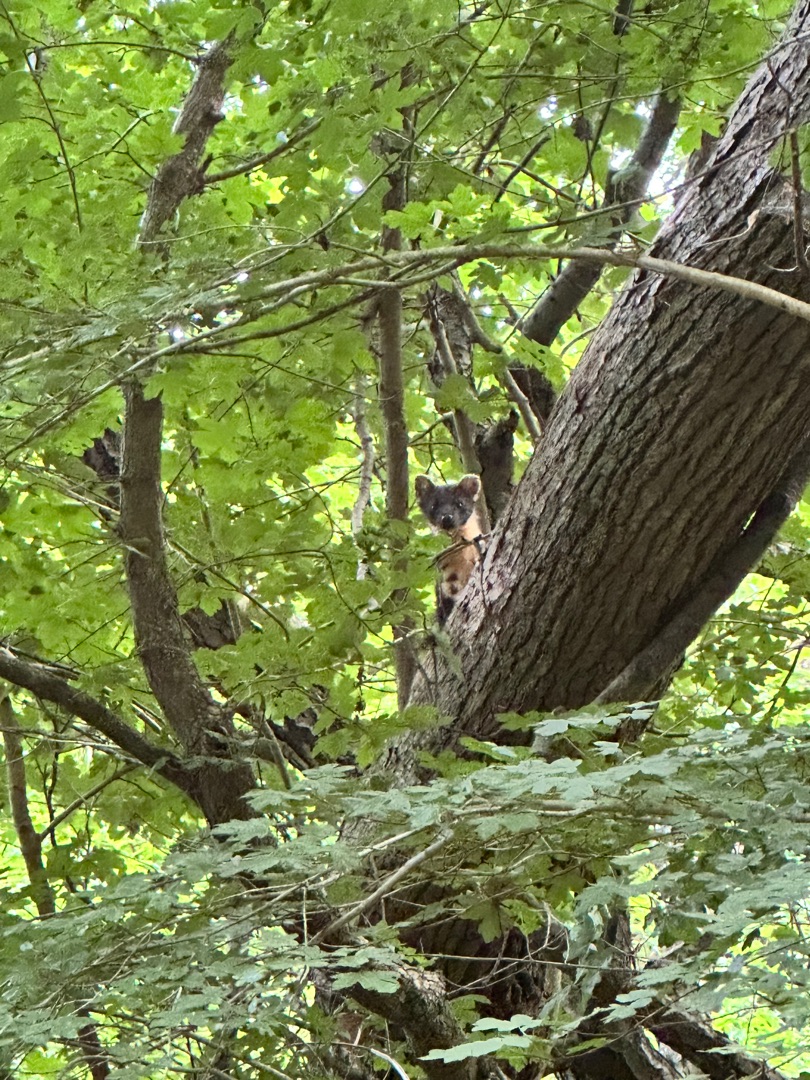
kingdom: Animalia
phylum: Chordata
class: Mammalia
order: Carnivora
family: Mustelidae
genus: Martes
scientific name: Martes martes
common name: Skovmår
